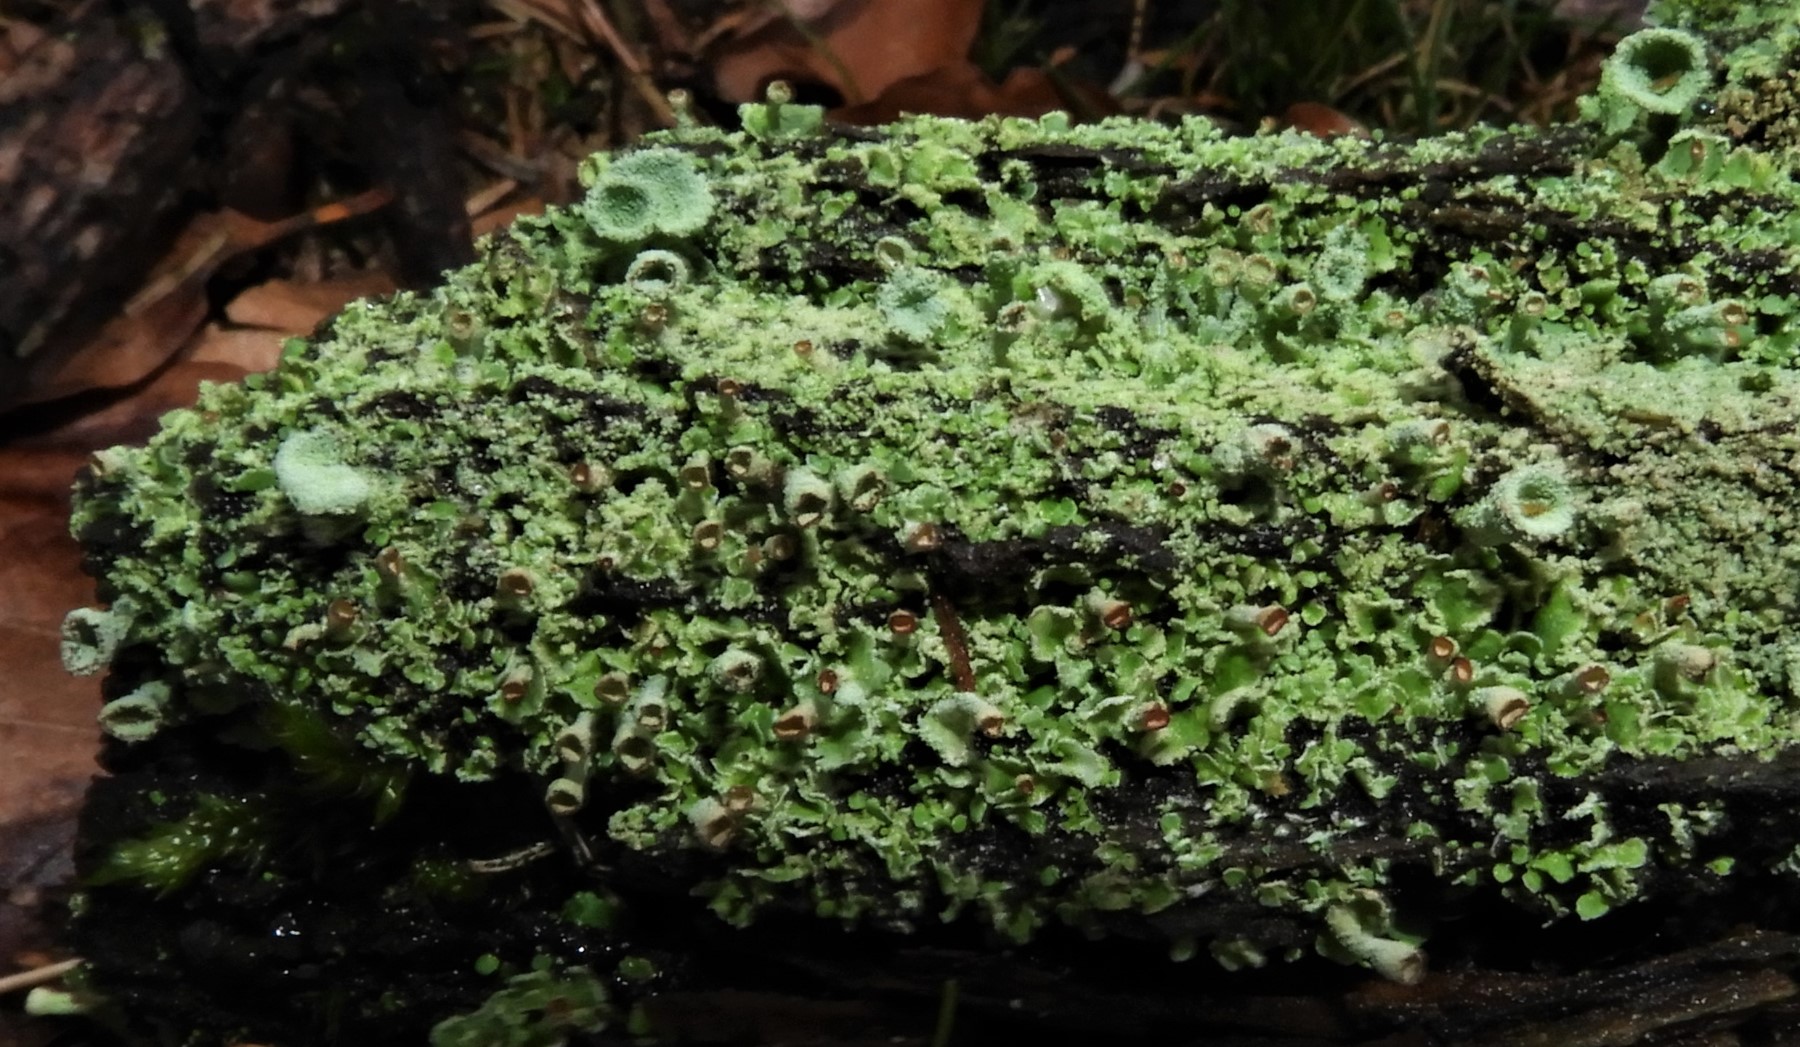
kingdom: Fungi
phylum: Ascomycota
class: Lecanoromycetes
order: Lecanorales
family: Cladoniaceae
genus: Cladonia
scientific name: Cladonia
